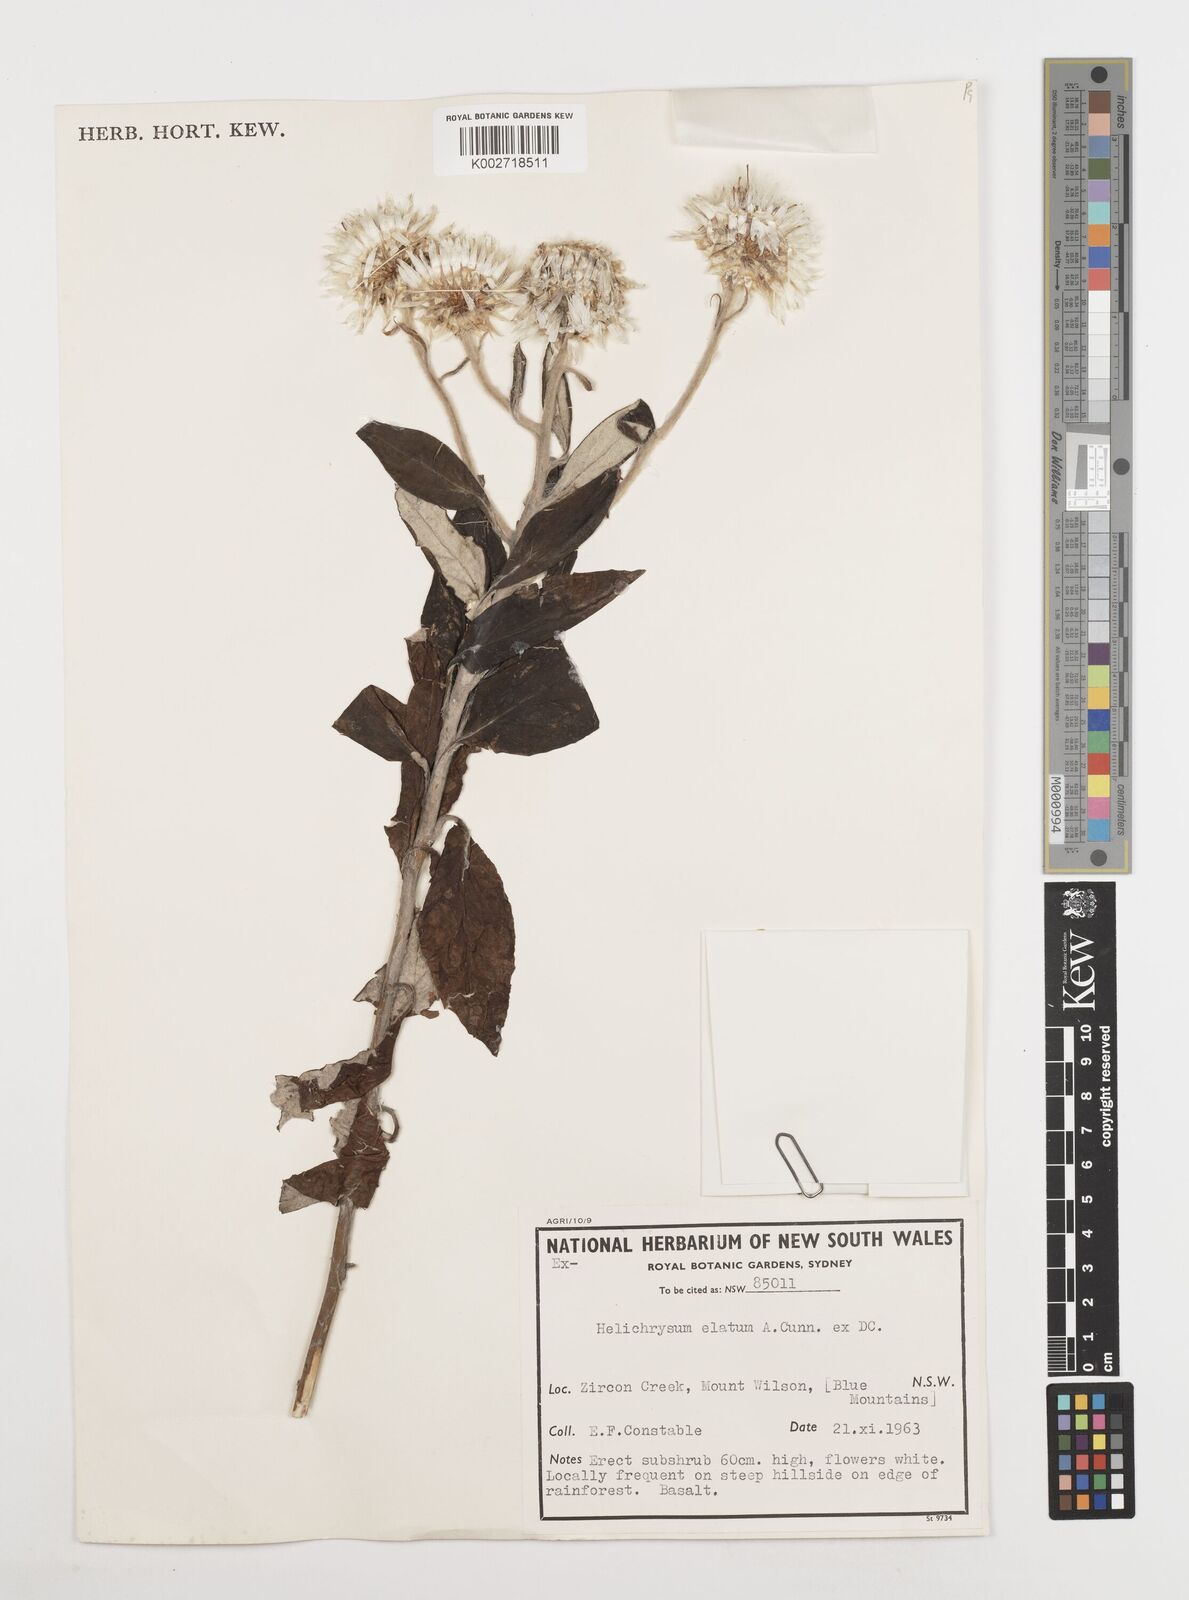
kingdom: Plantae
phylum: Tracheophyta
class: Magnoliopsida
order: Asterales
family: Asteraceae
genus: Leucozoma
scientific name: Leucozoma elatum
